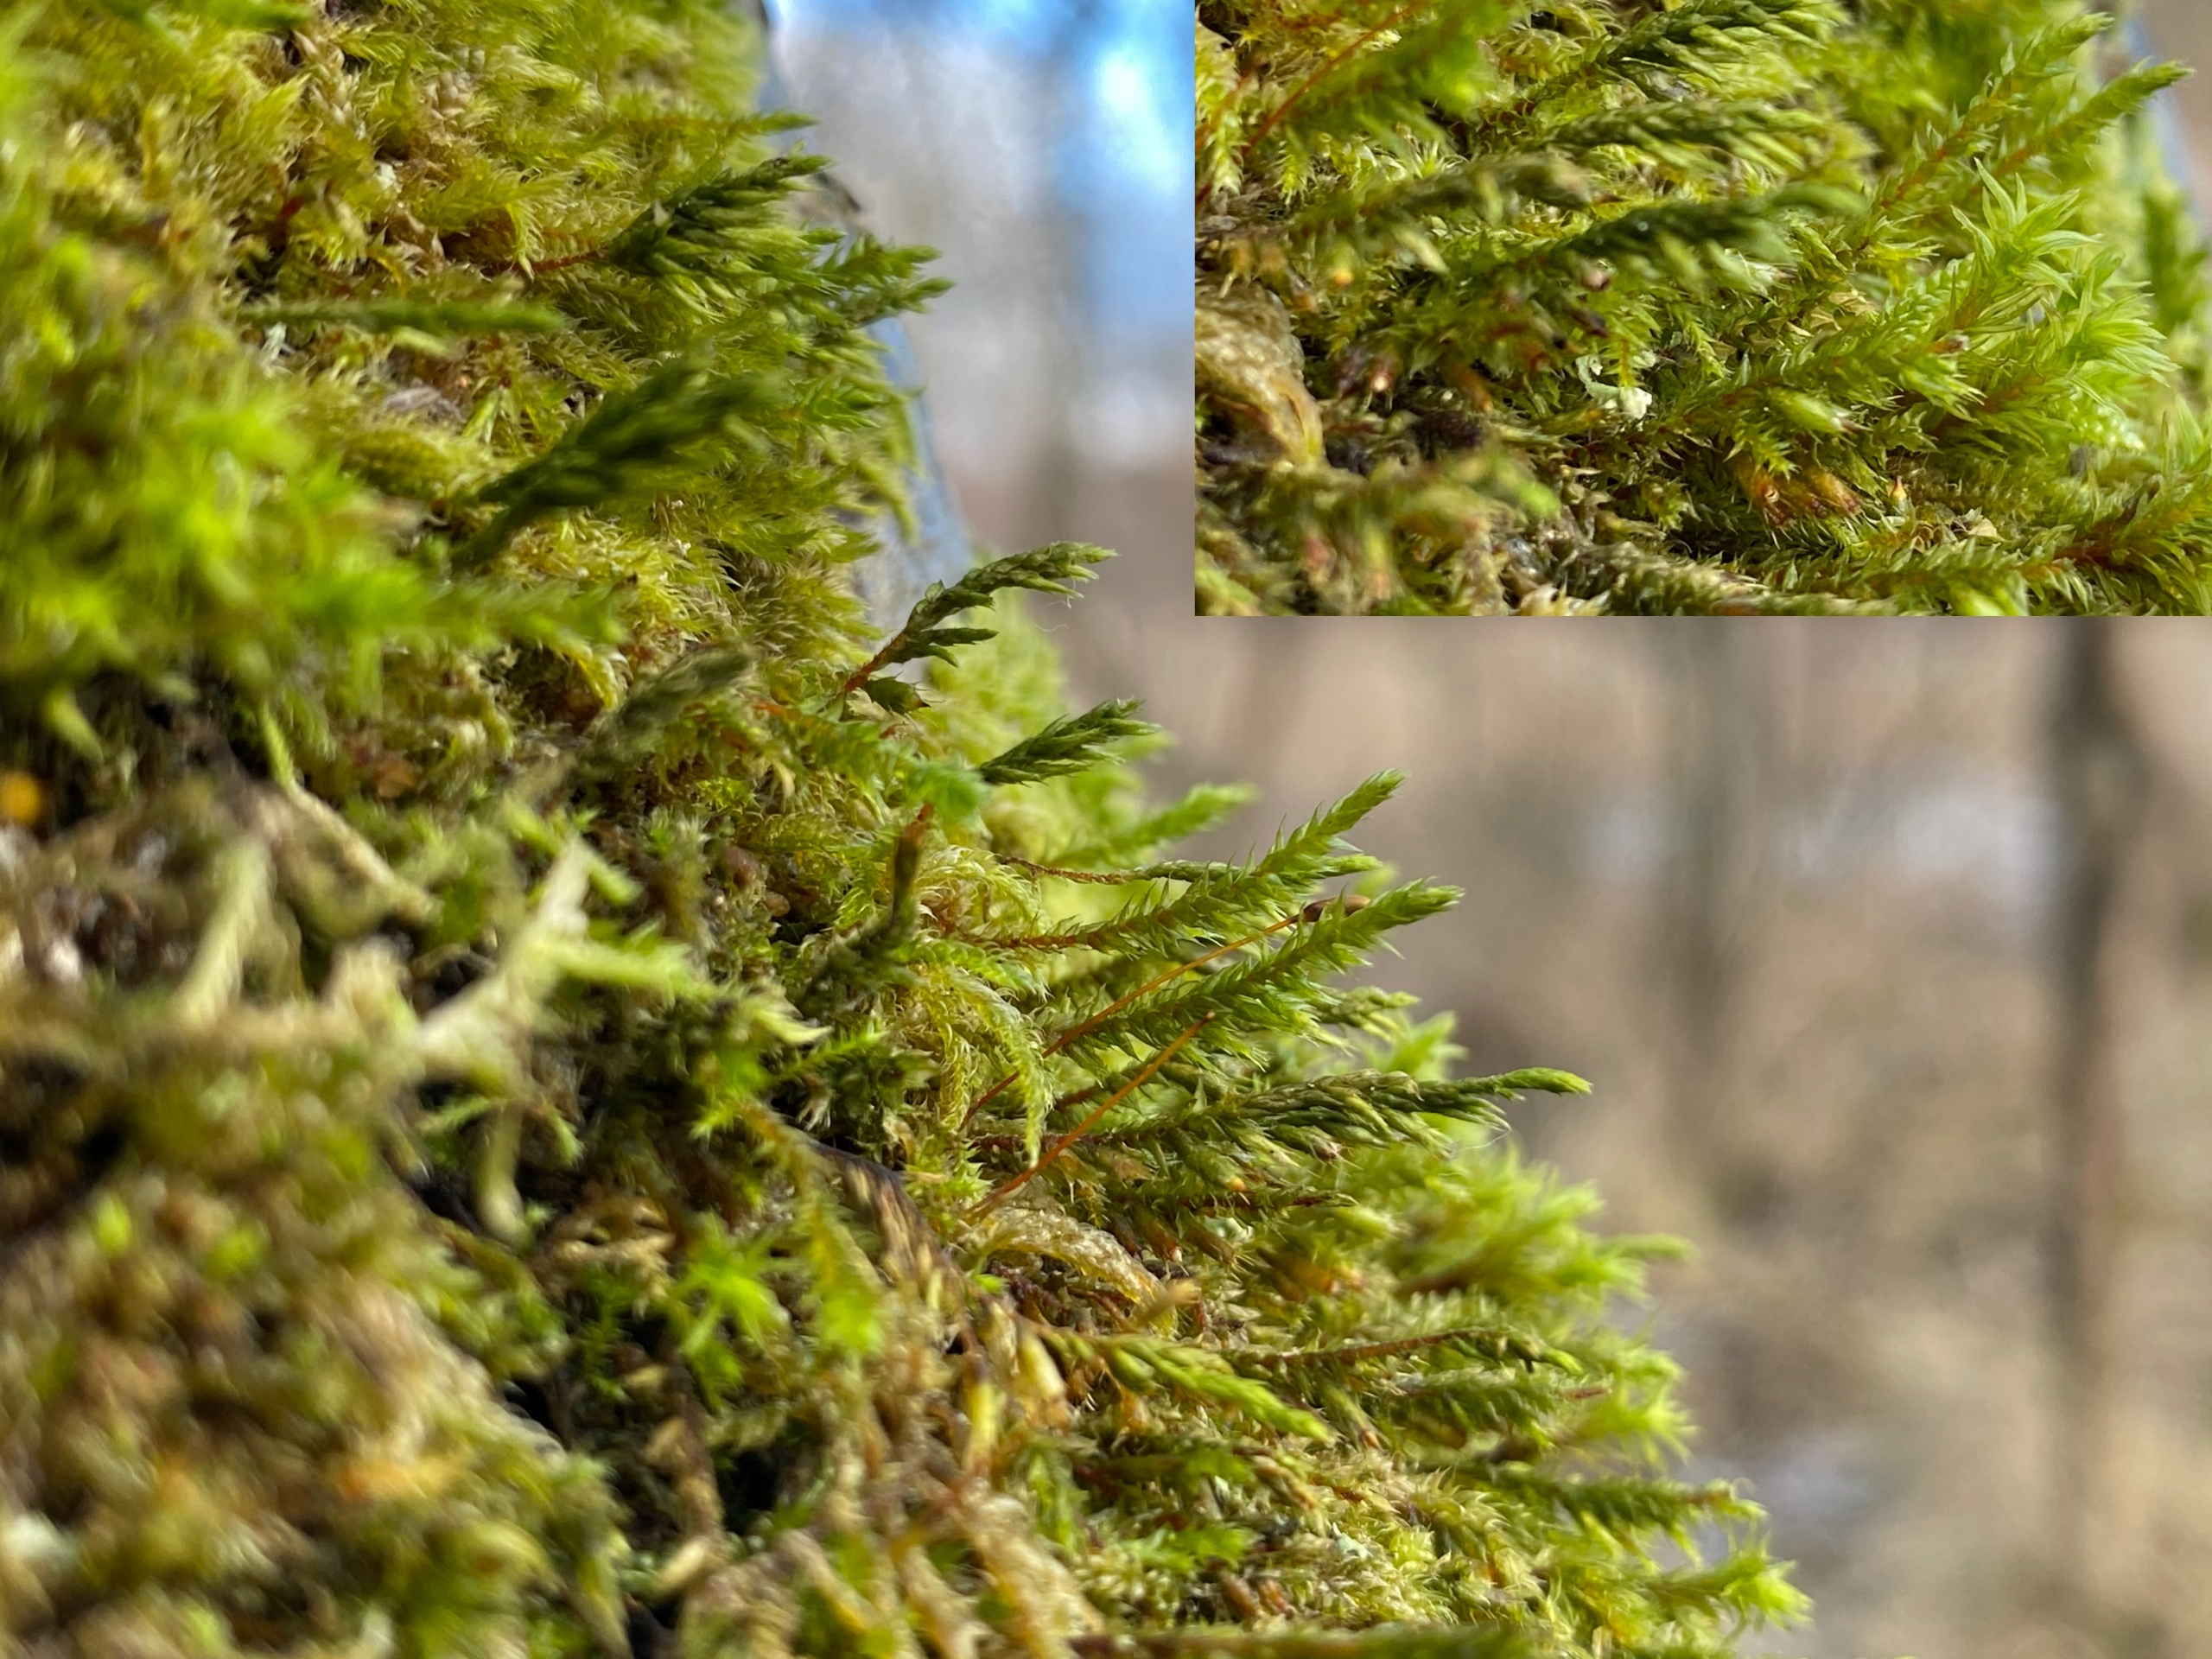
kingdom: Plantae
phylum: Bryophyta
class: Bryopsida
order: Hypnales
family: Cryphaeaceae
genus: Cryphaea
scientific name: Cryphaea heteromalla
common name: Bark-dækmos
